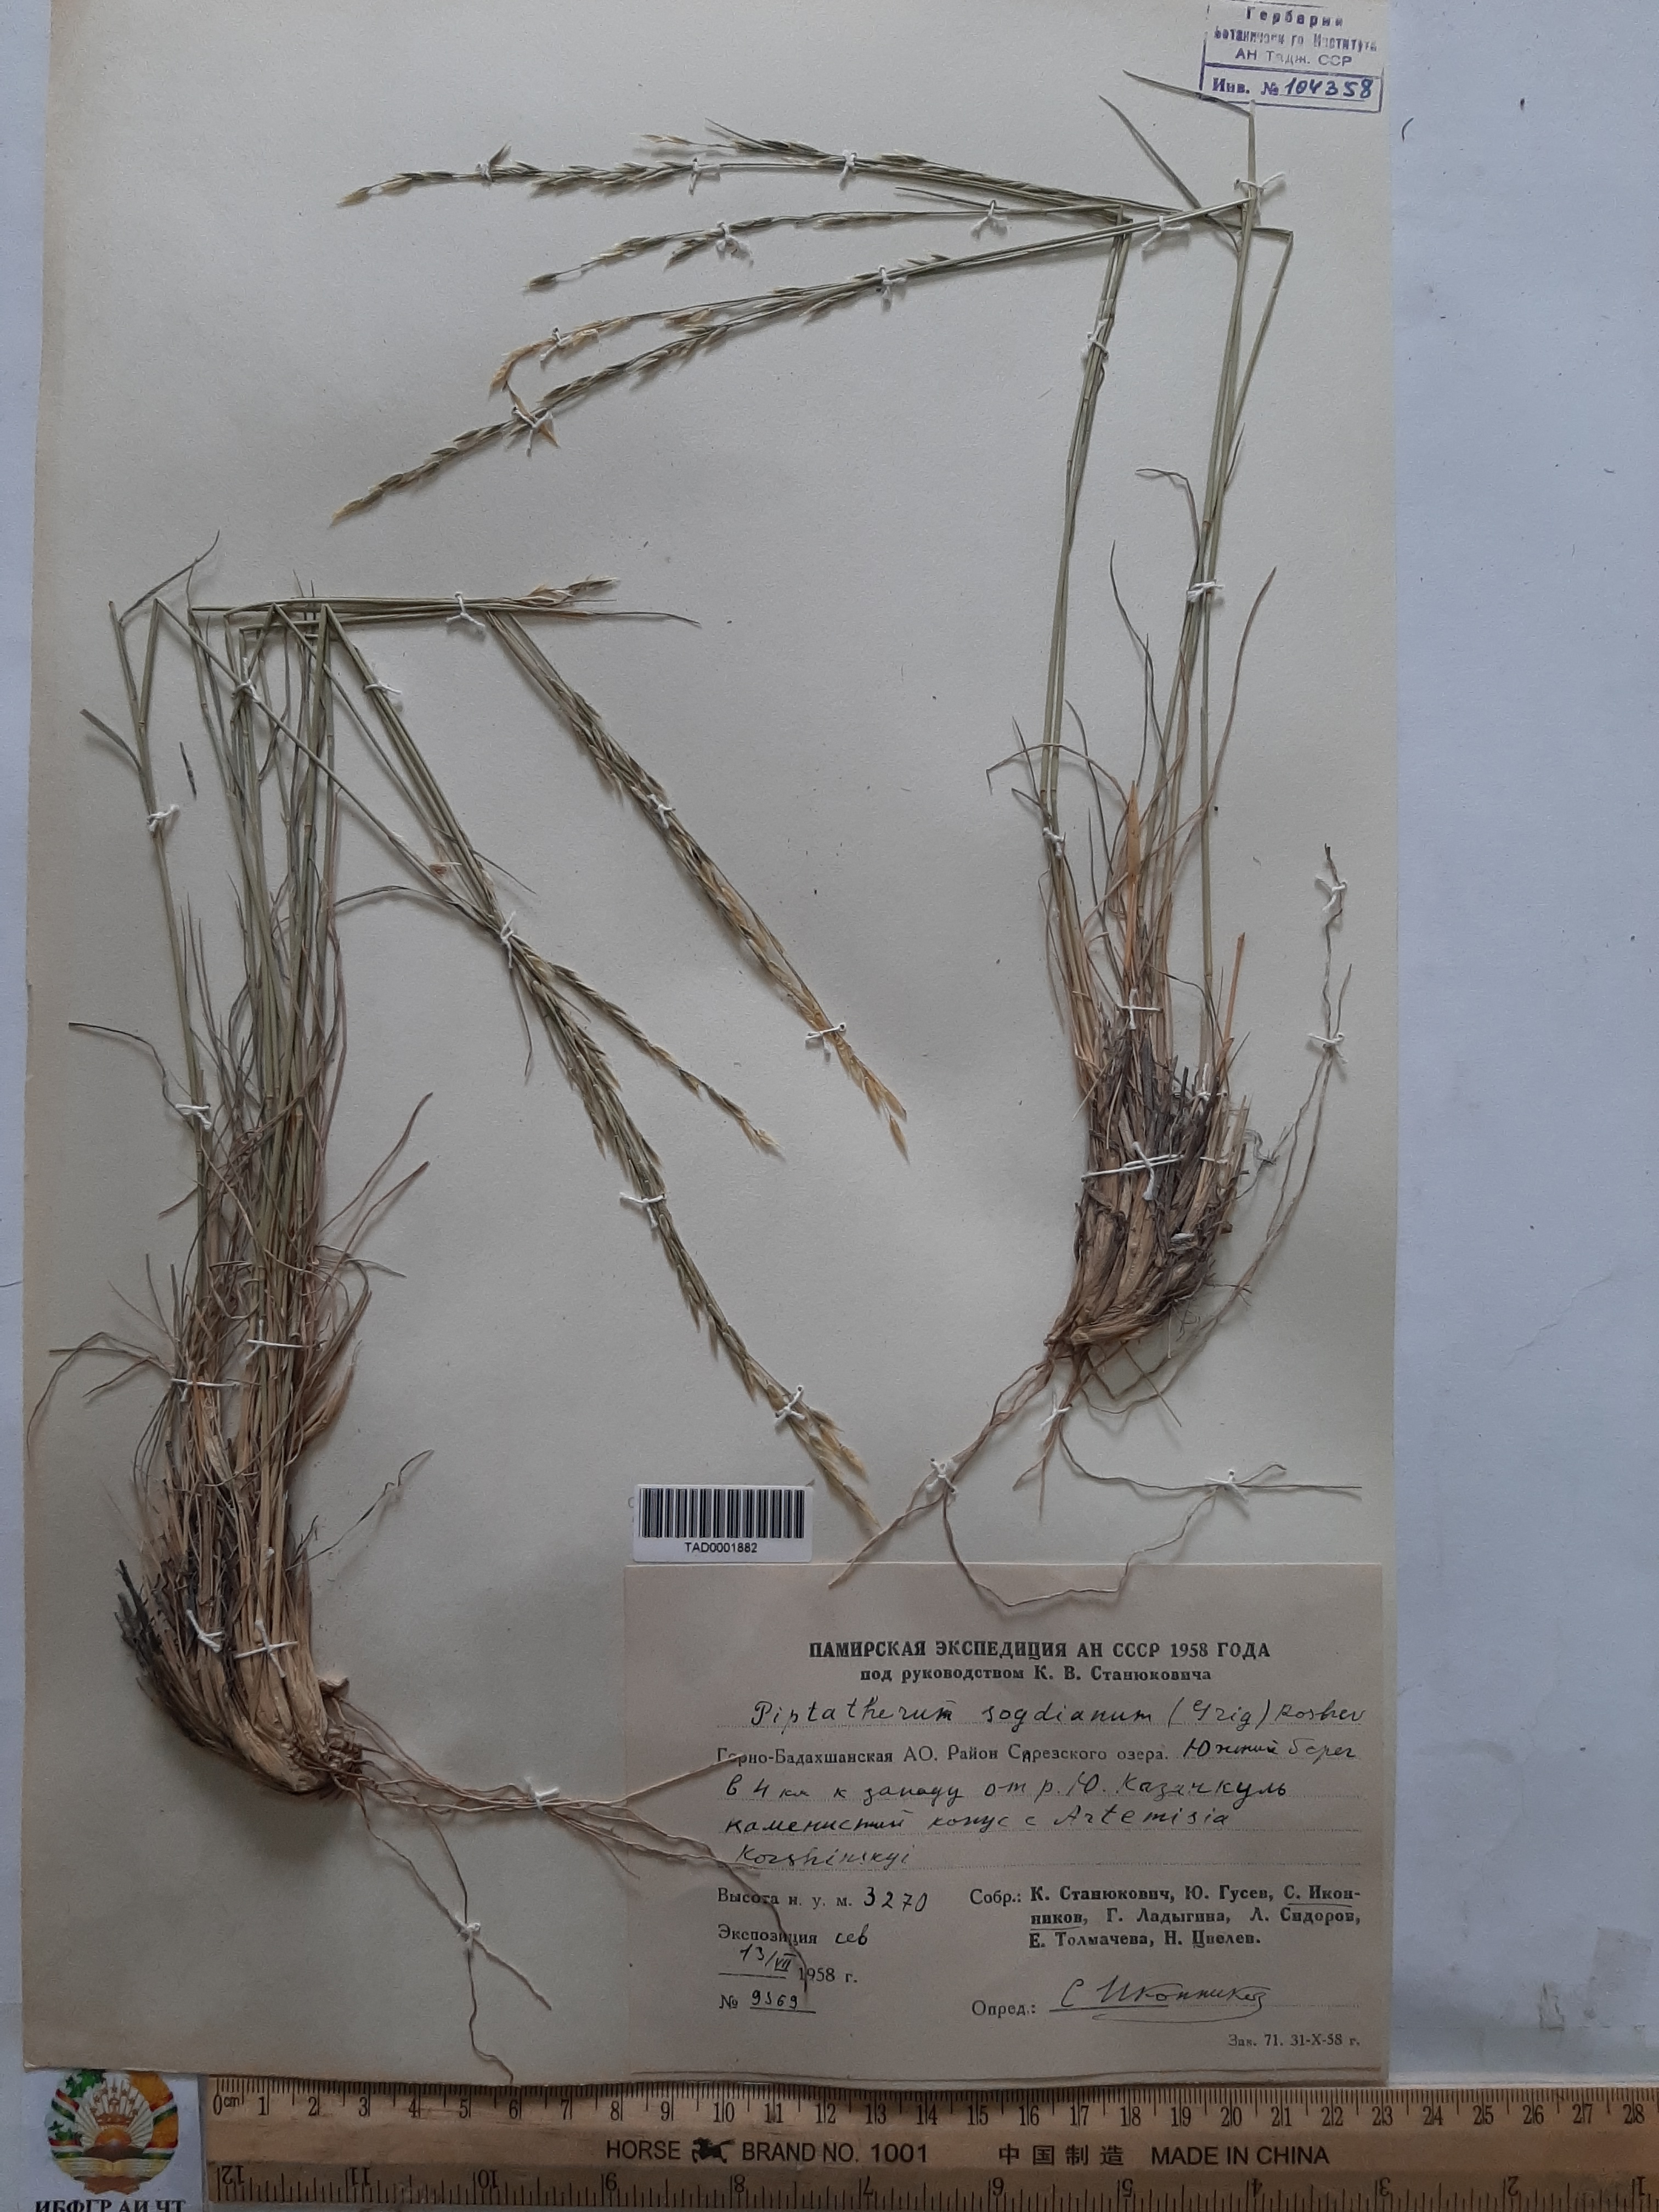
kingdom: Plantae
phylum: Tracheophyta
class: Liliopsida
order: Poales
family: Poaceae
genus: Piptatherum
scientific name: Piptatherum sogdianum
